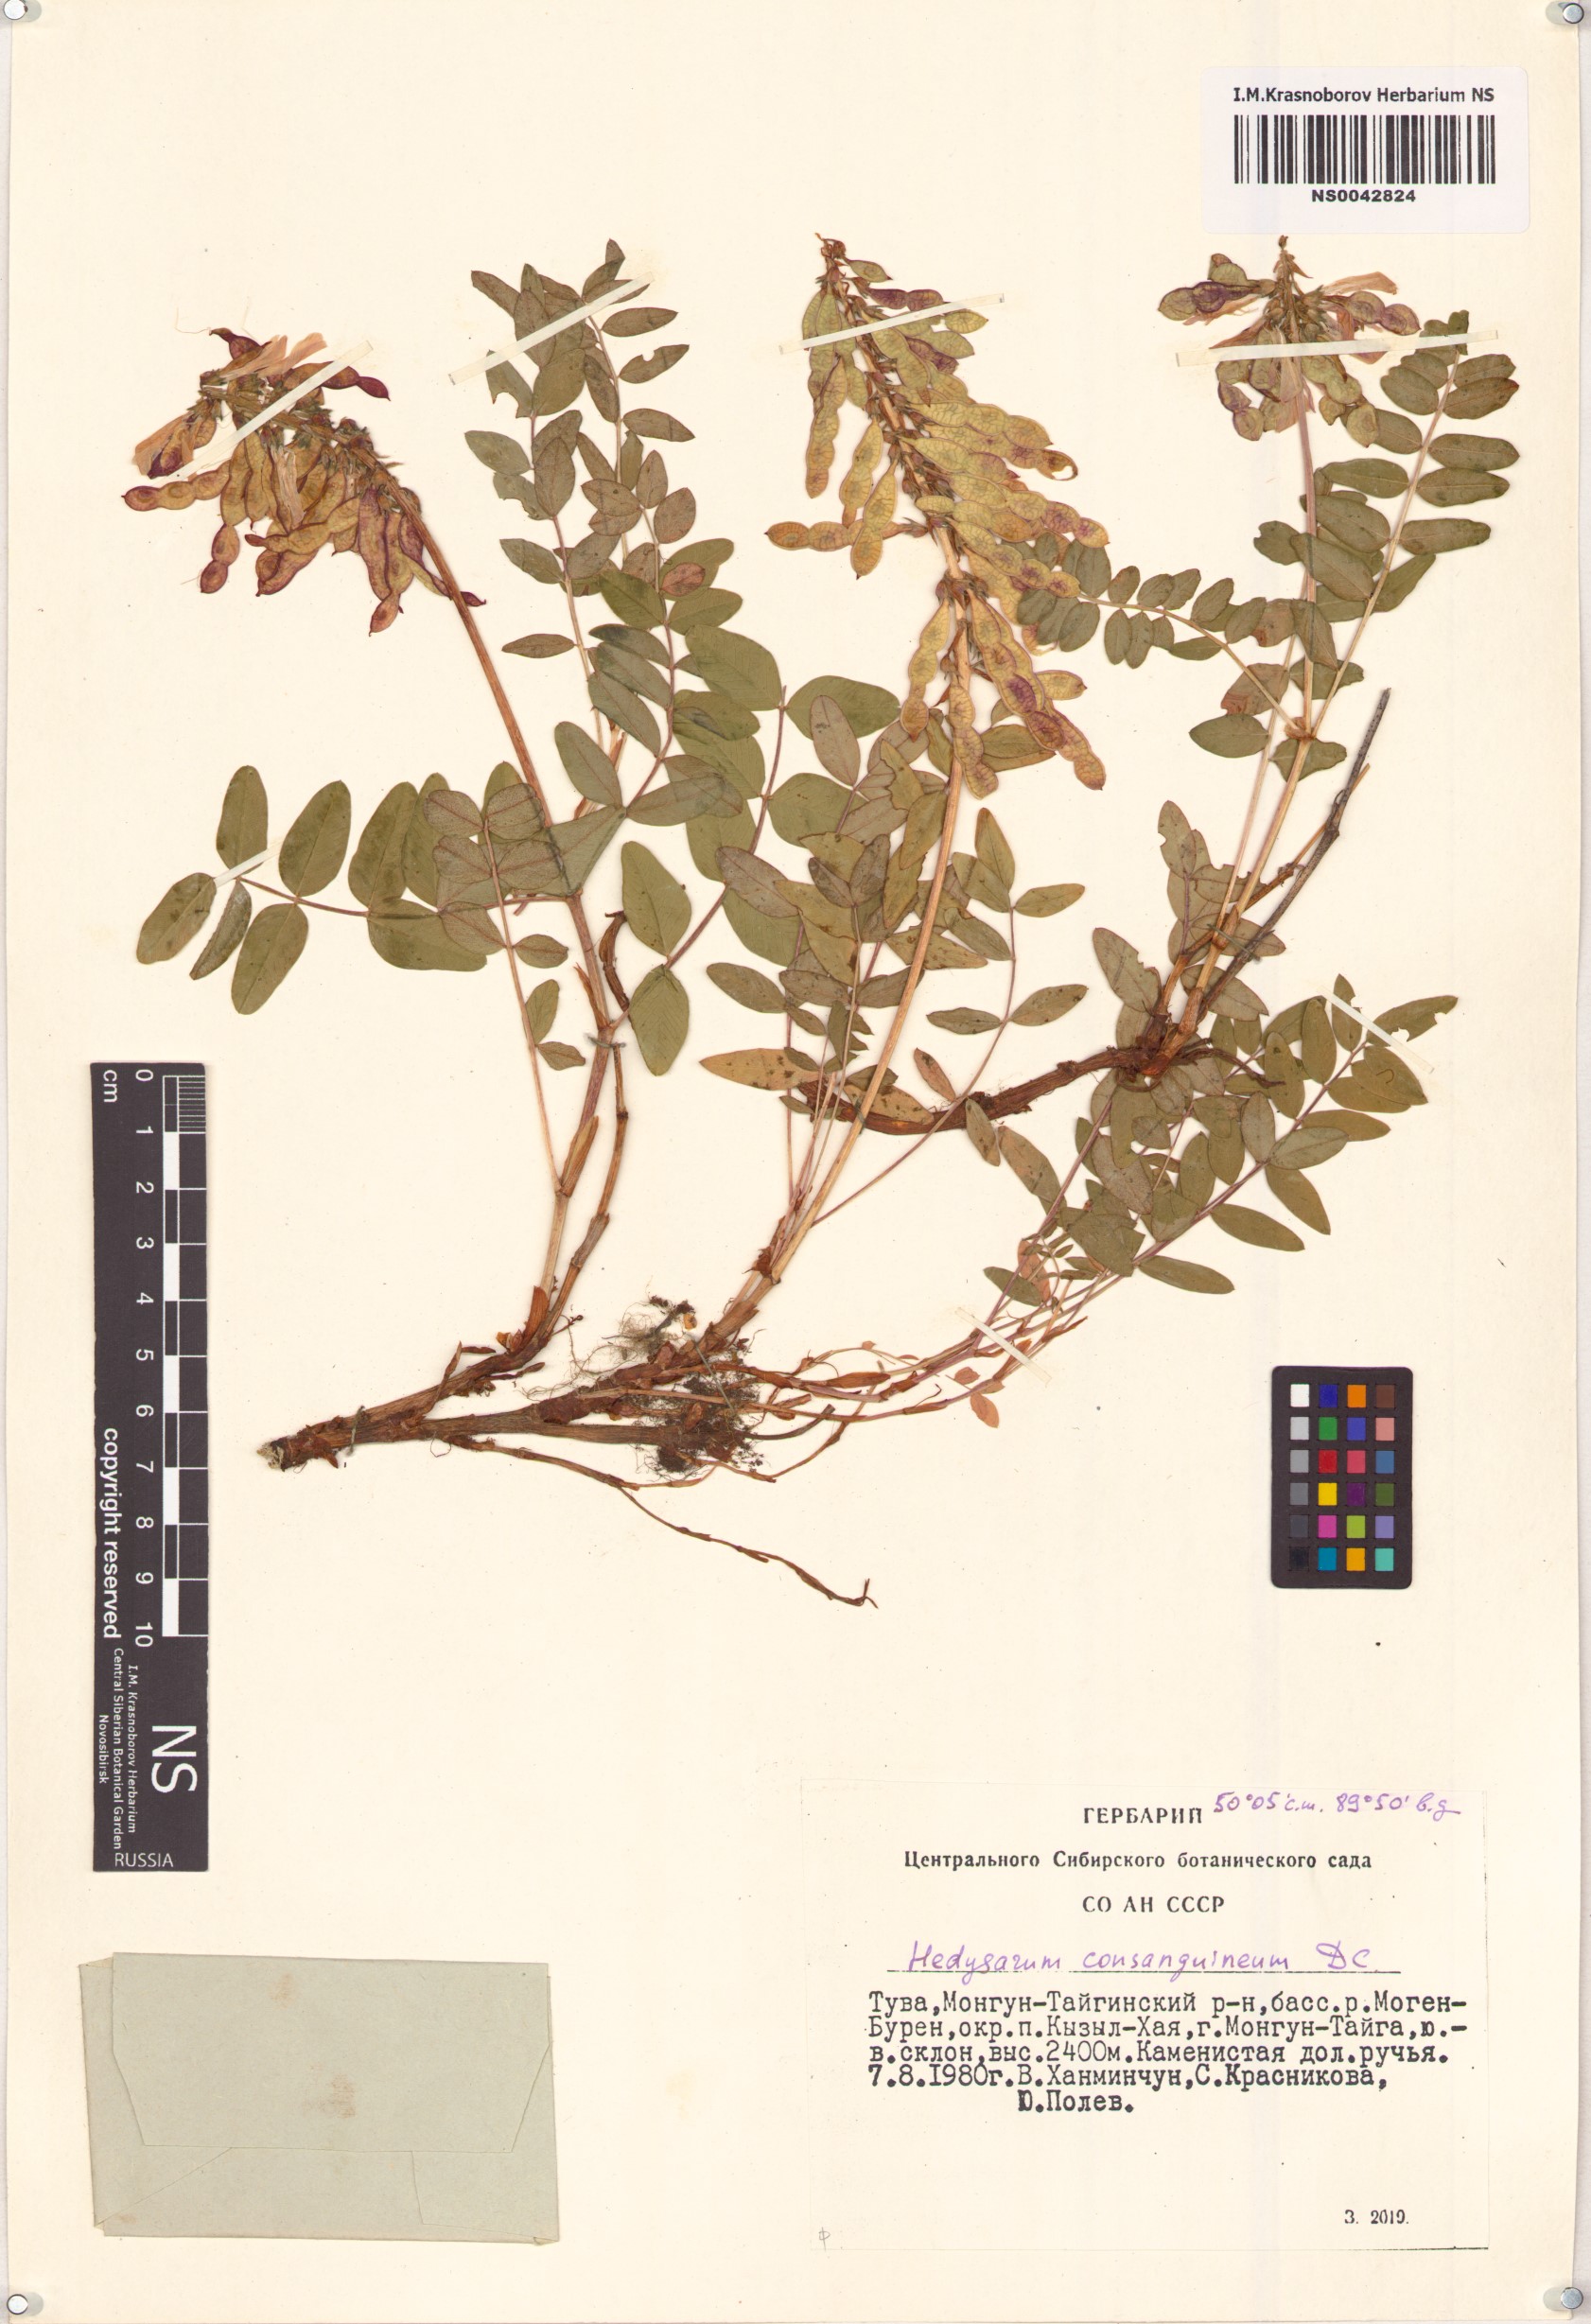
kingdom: Plantae
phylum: Tracheophyta
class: Magnoliopsida
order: Fabales
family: Fabaceae
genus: Hedysarum
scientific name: Hedysarum consanguineum
